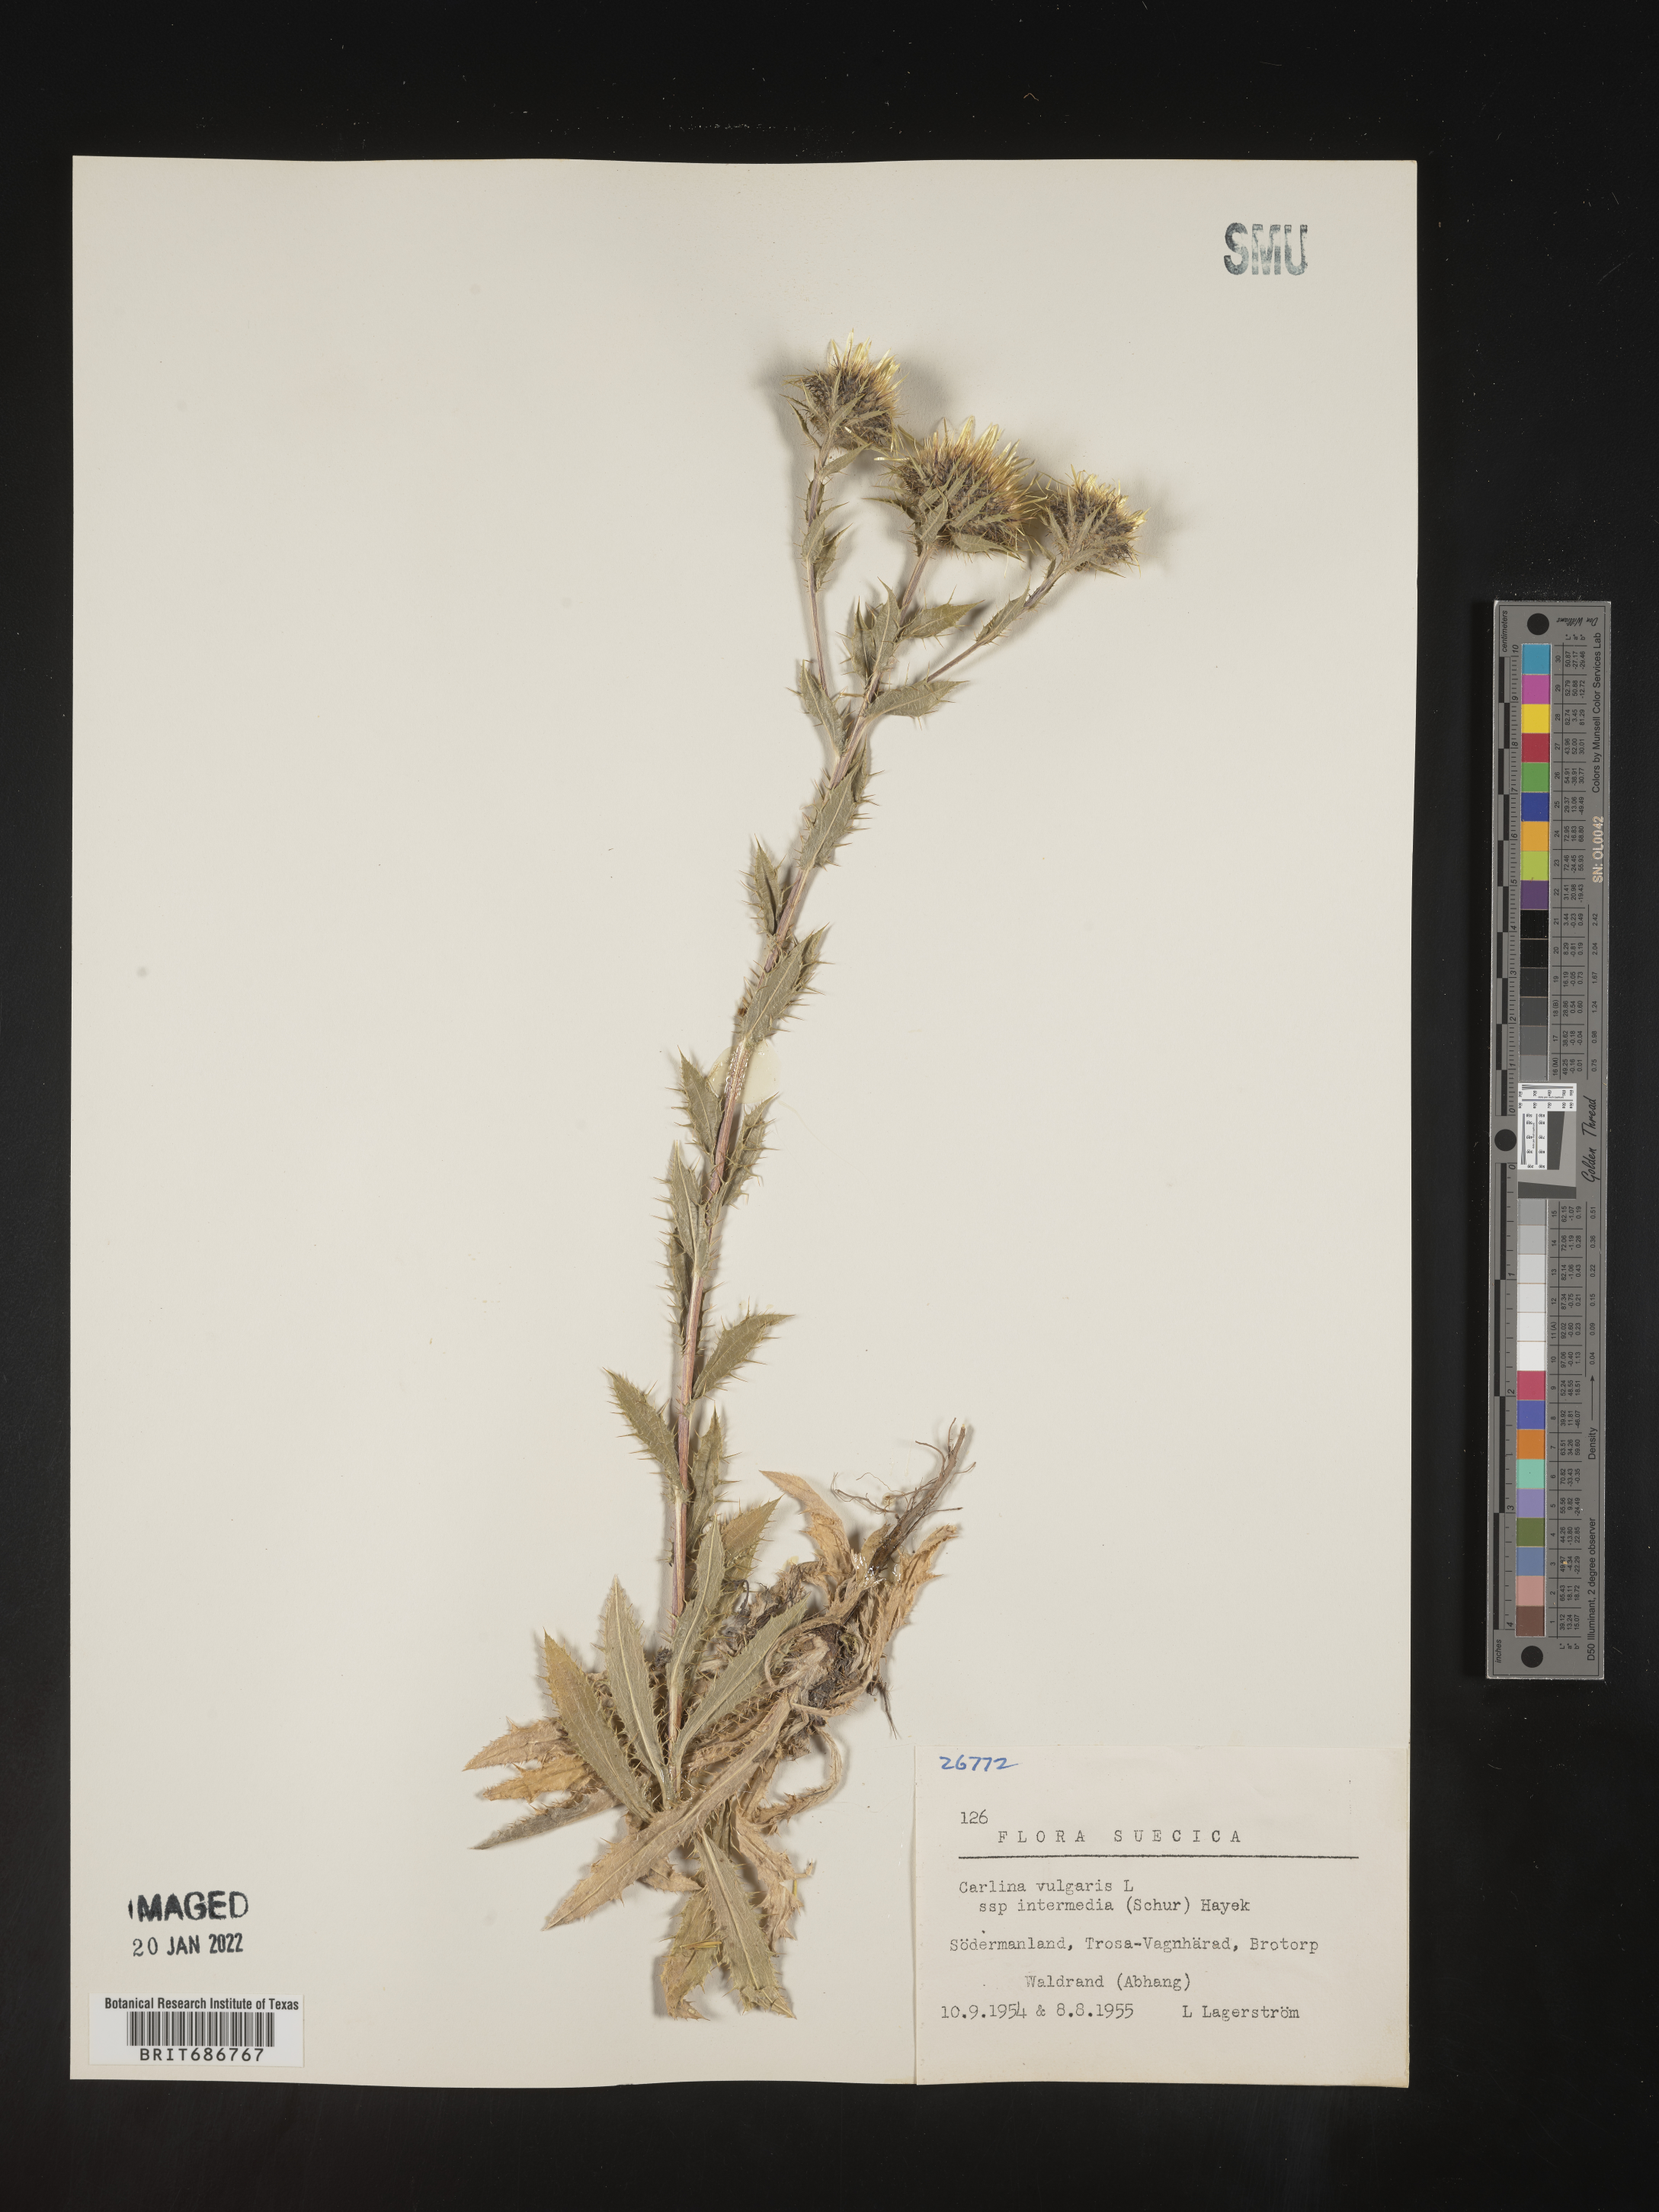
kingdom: Plantae
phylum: Tracheophyta
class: Magnoliopsida
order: Asterales
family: Asteraceae
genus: Carlina
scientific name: Carlina
